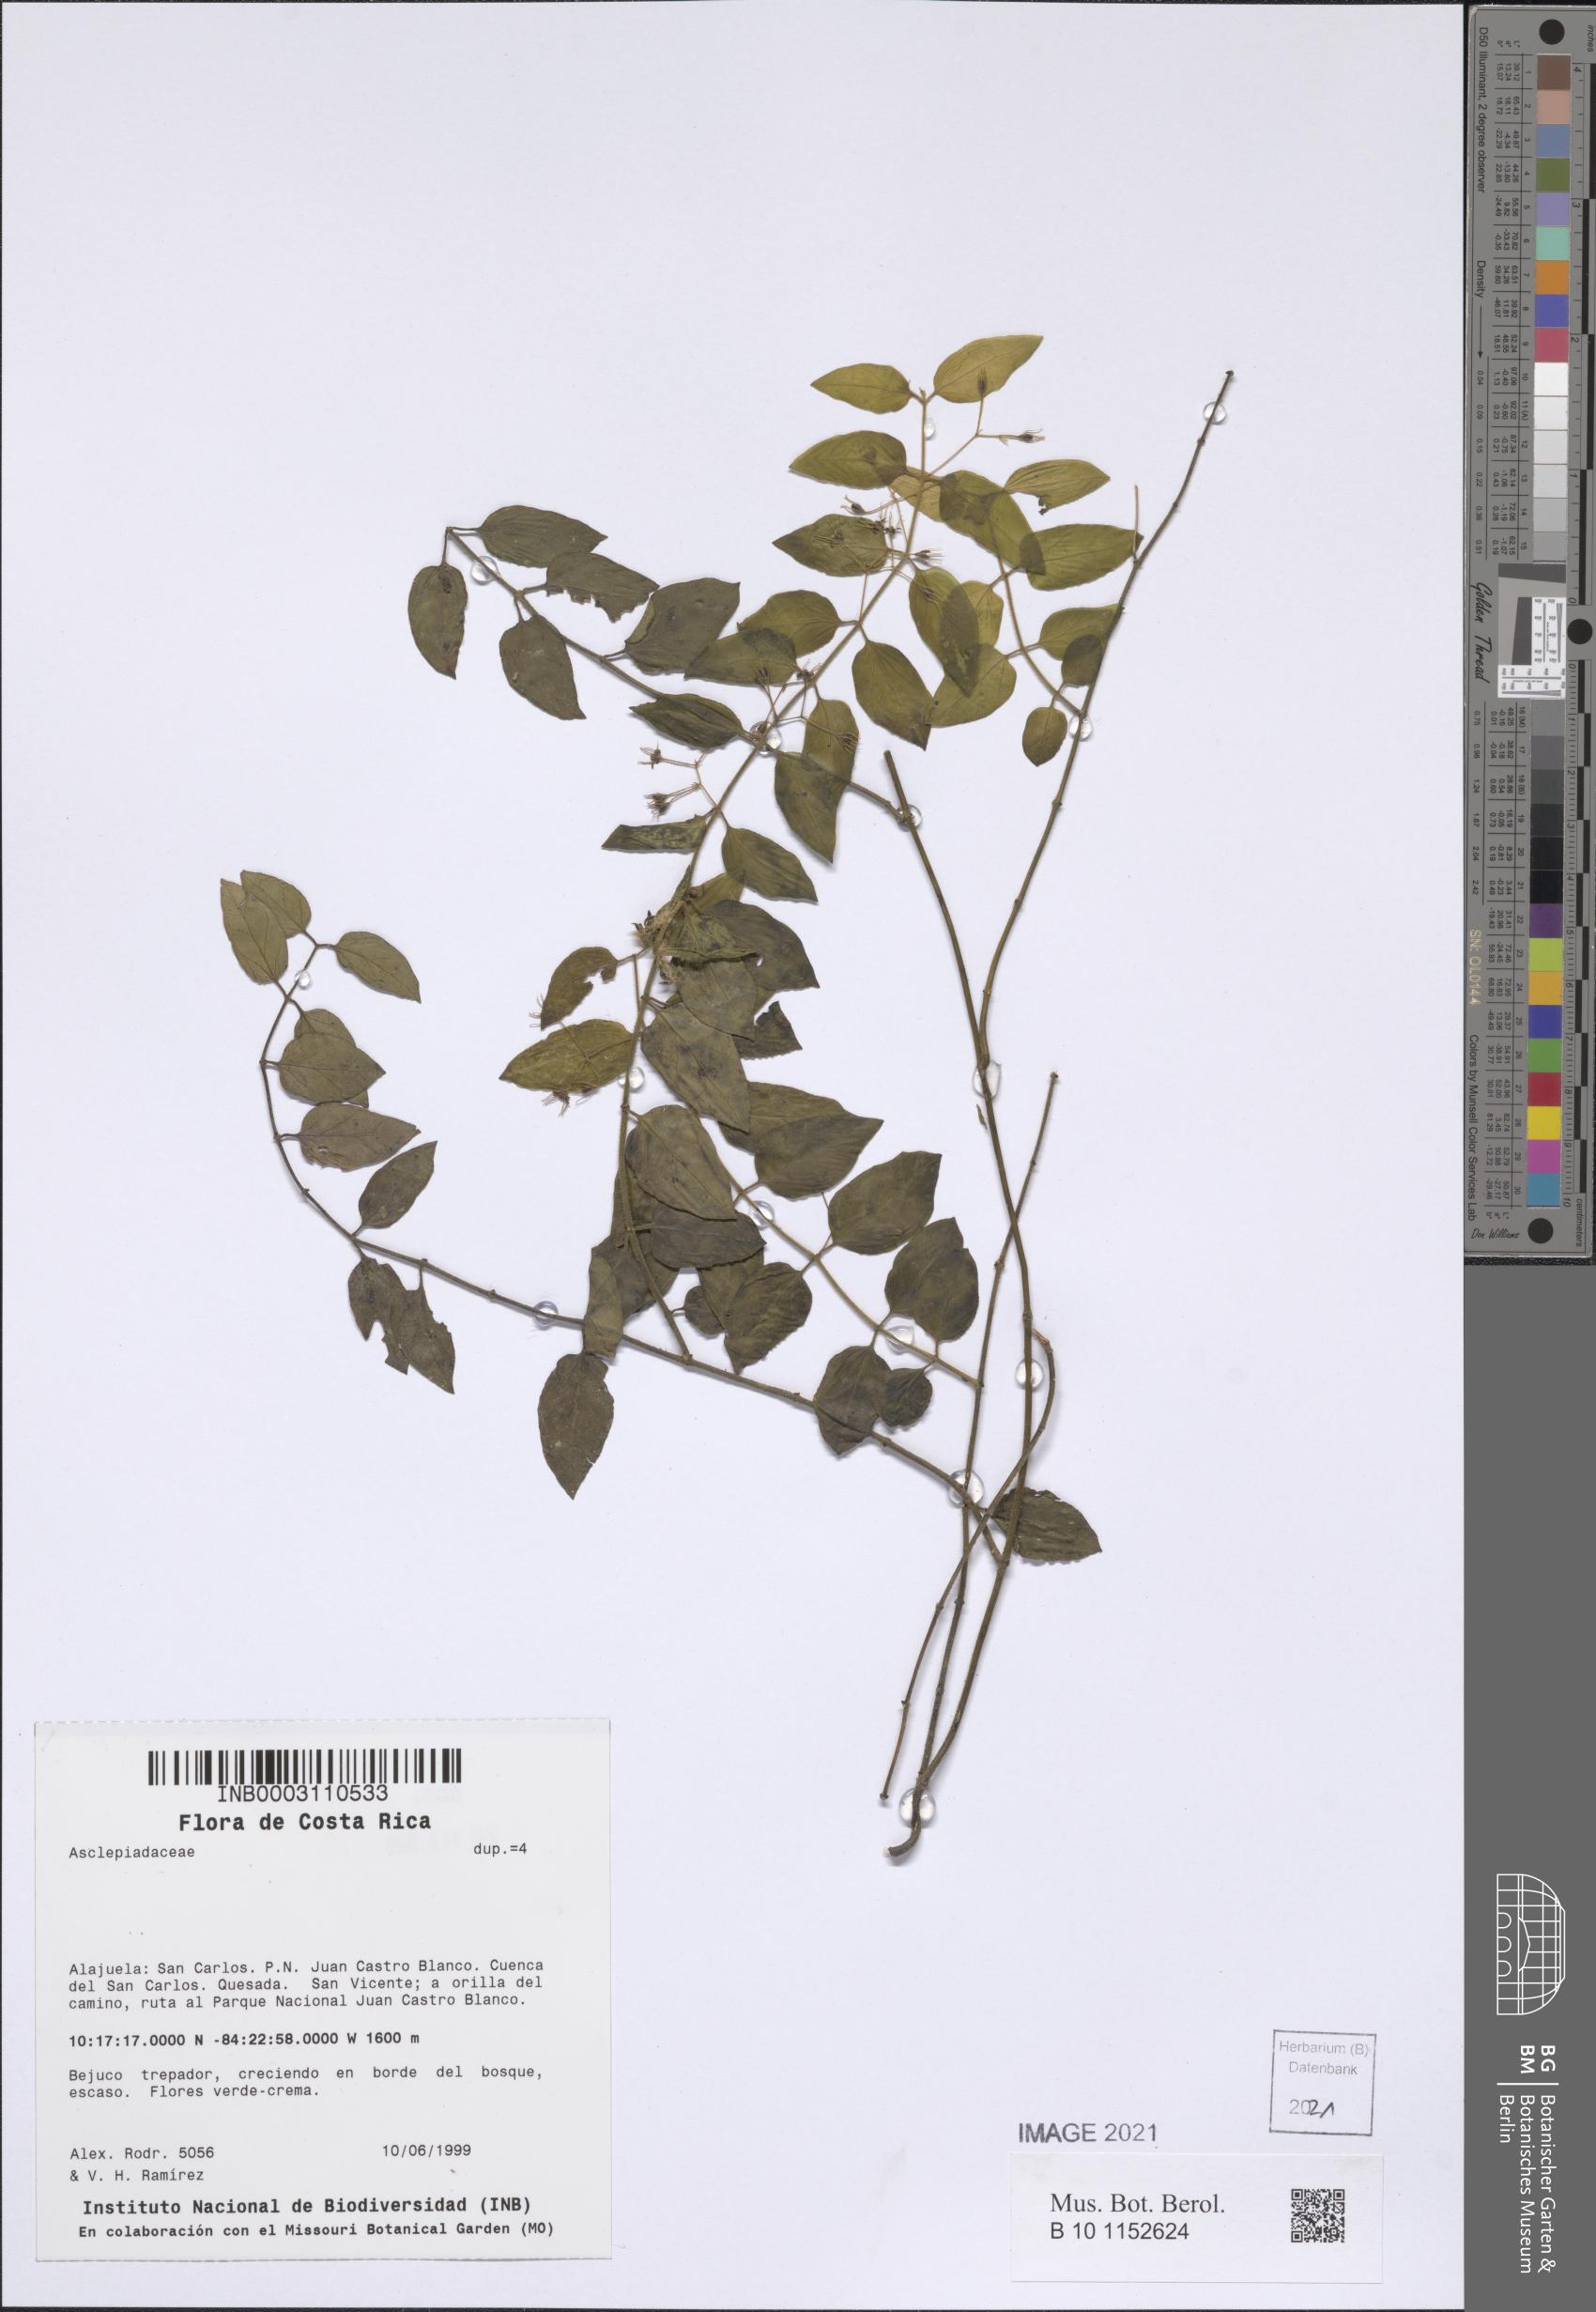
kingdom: Plantae
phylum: Tracheophyta
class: Magnoliopsida
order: Gentianales
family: Asclepiadaceae
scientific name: Asclepiadaceae
